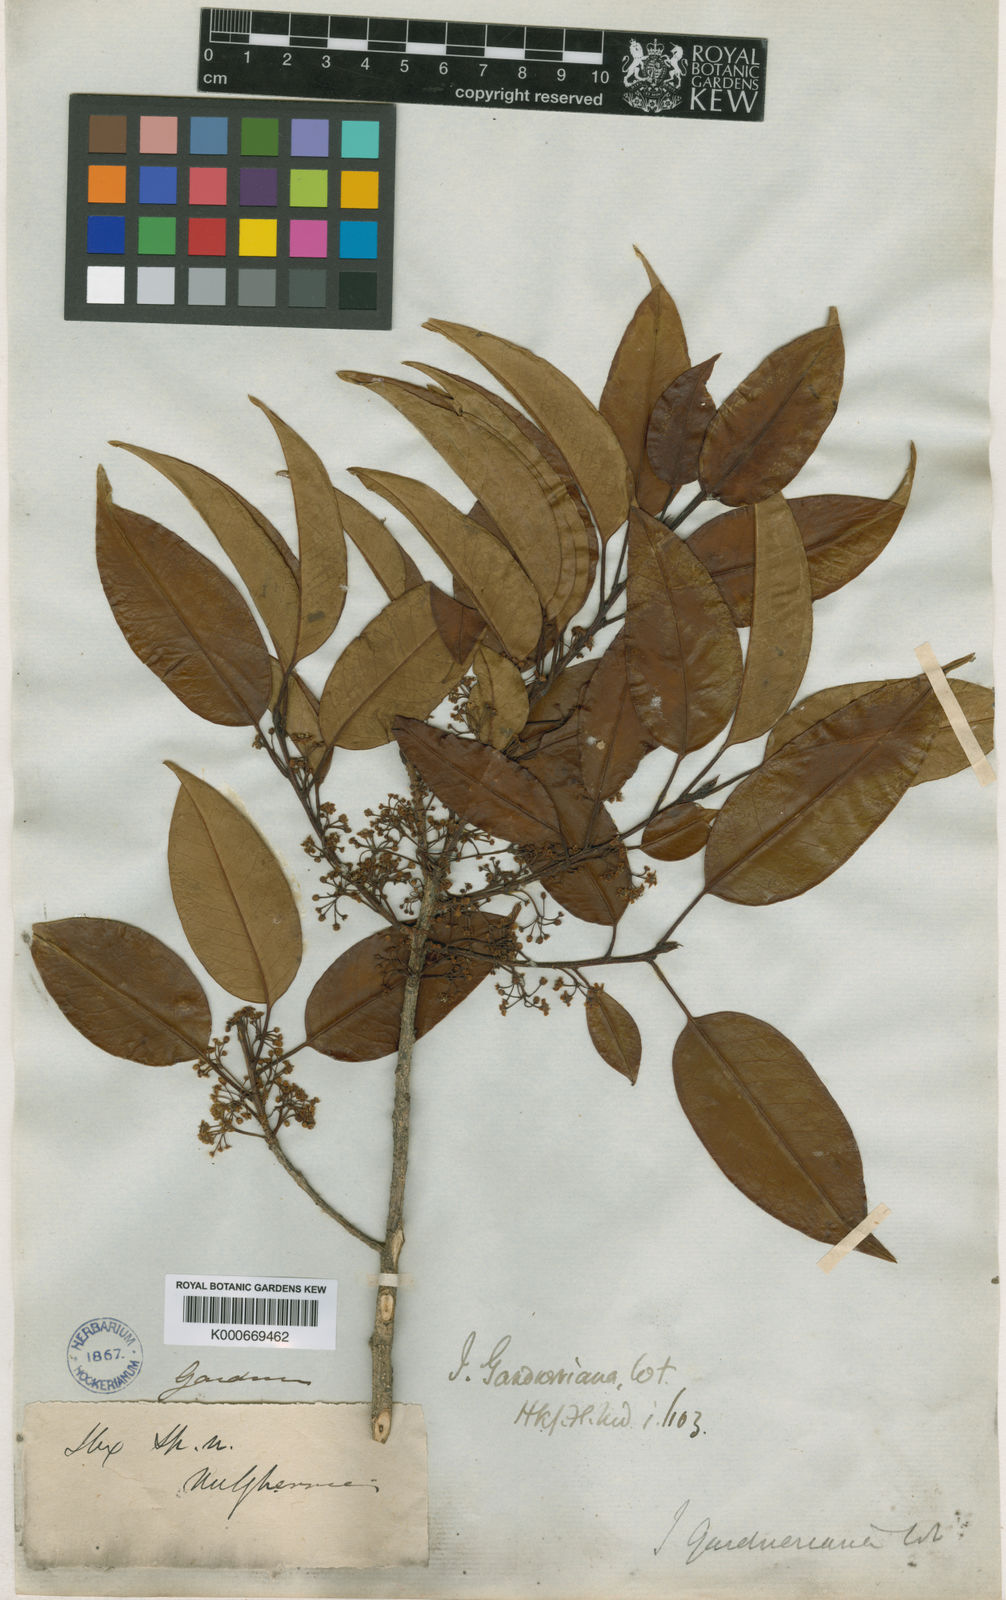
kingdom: Plantae
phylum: Tracheophyta
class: Magnoliopsida
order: Aquifoliales
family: Aquifoliaceae
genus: Ilex
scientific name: Ilex gardneriana
